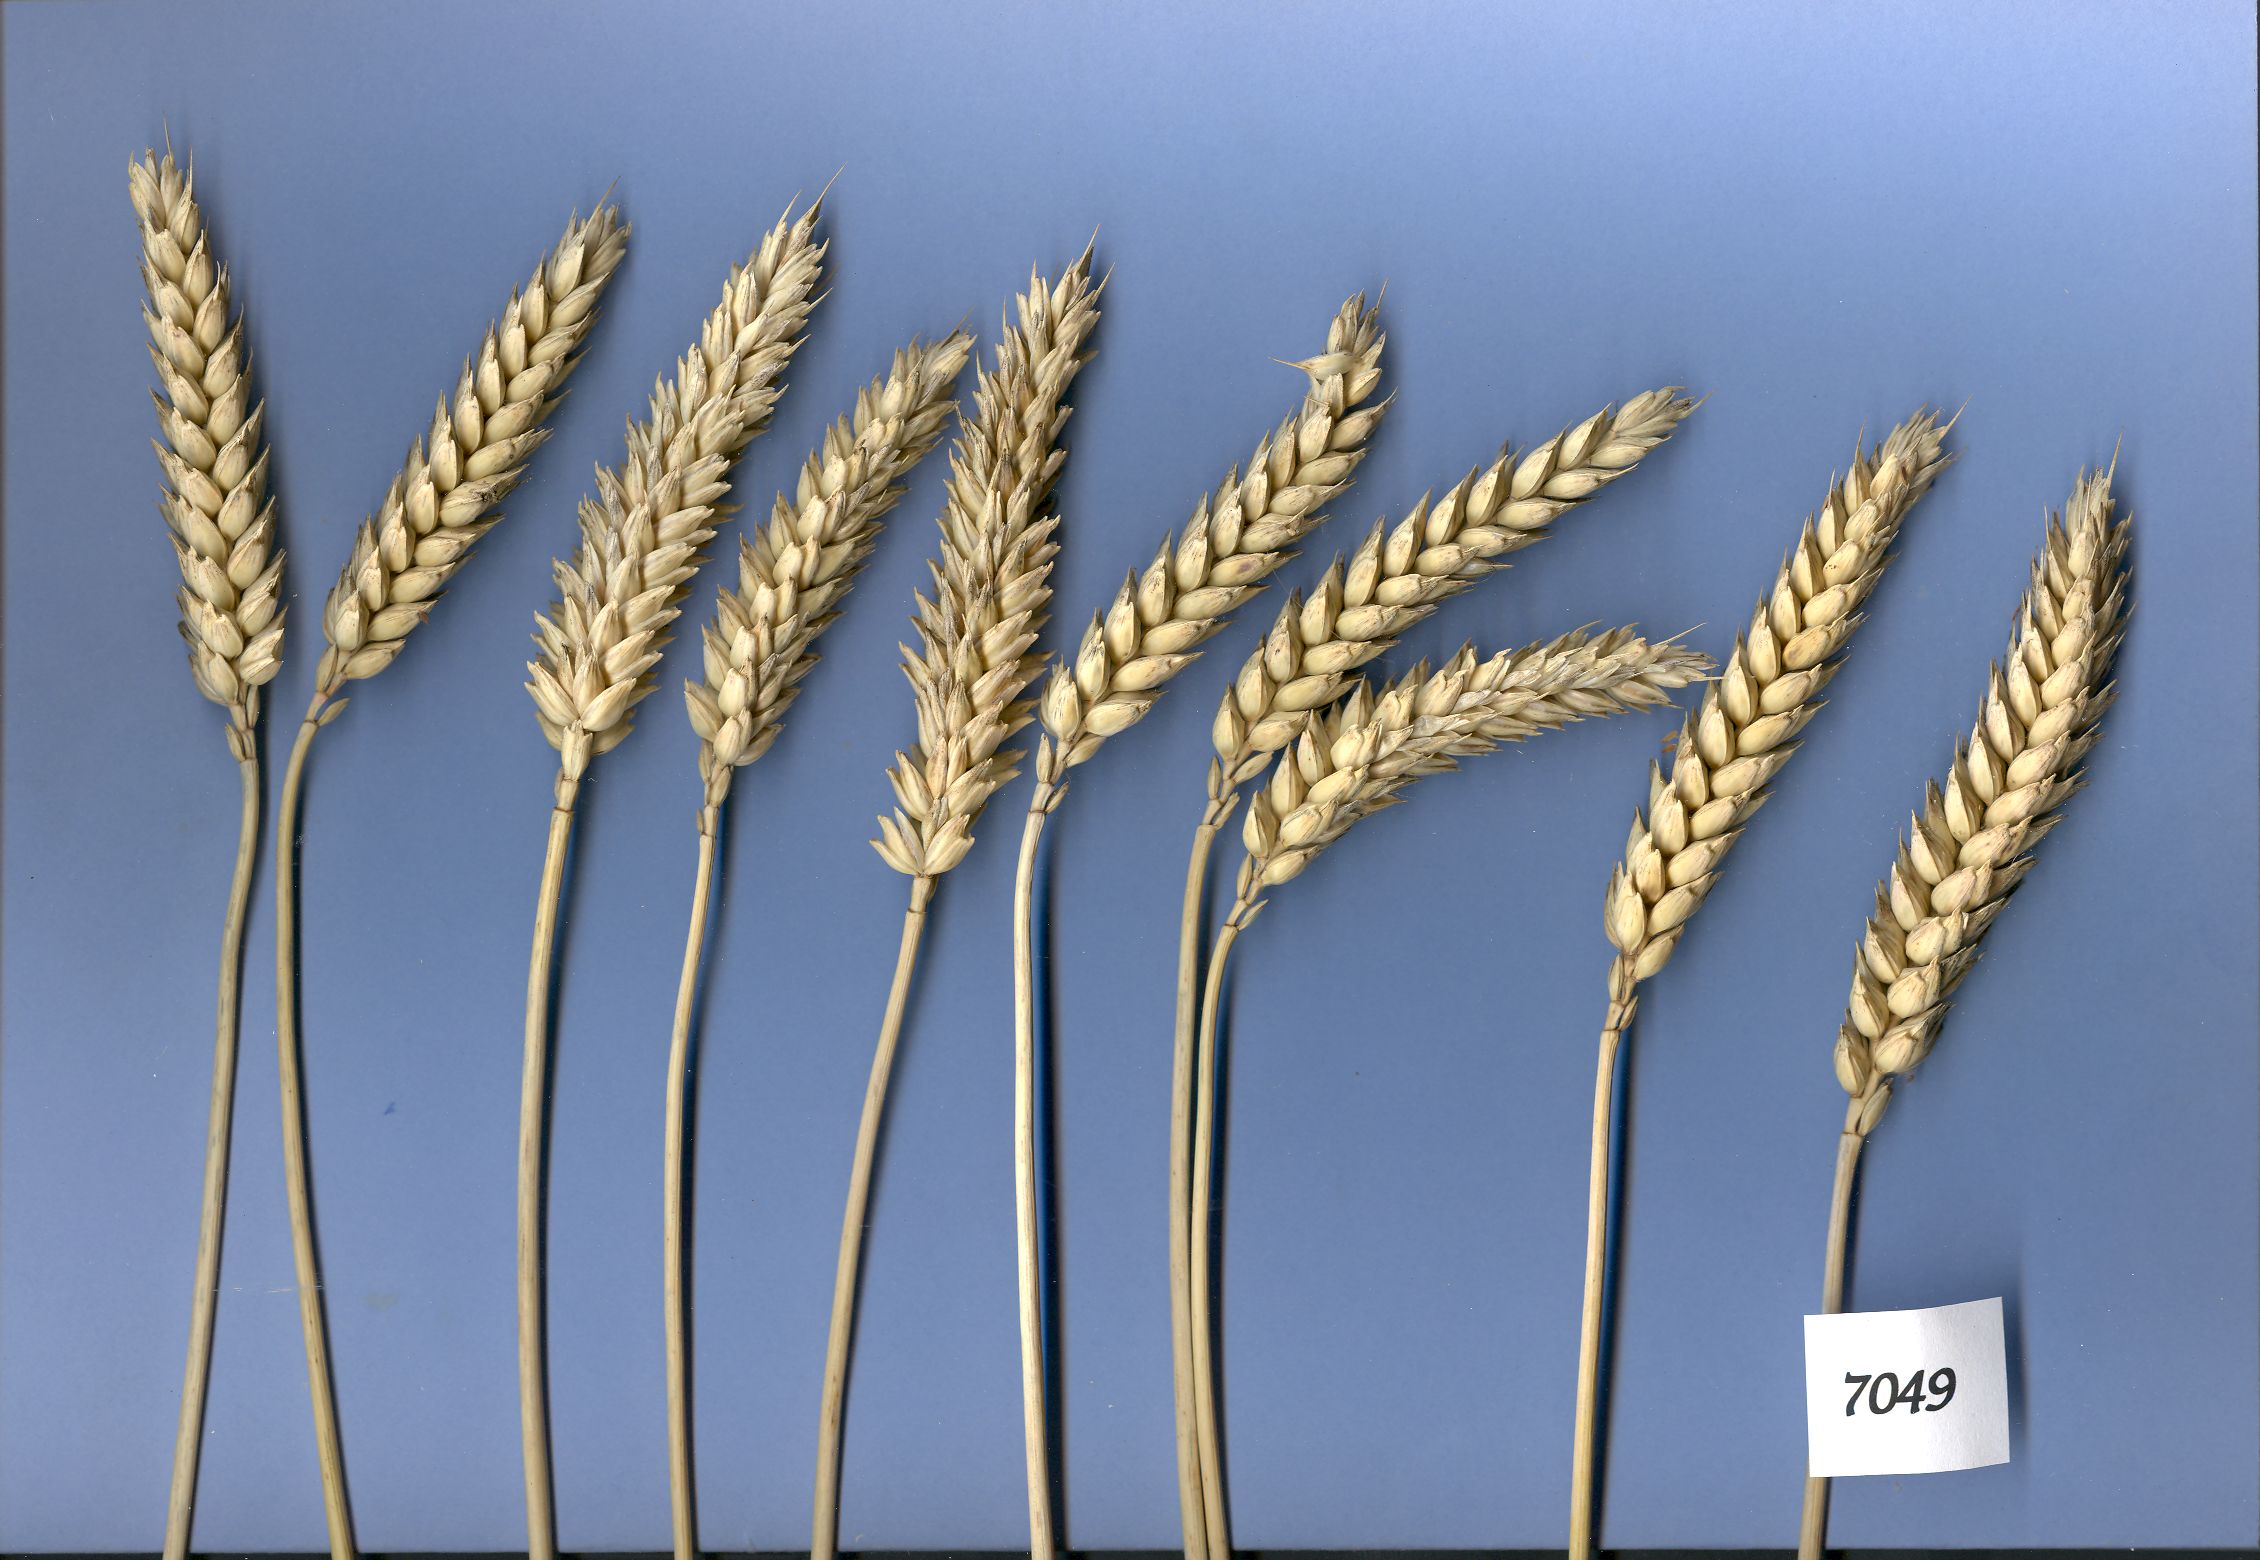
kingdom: Plantae
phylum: Tracheophyta
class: Liliopsida
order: Poales
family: Poaceae
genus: Triticum
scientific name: Triticum aestivum
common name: Common wheat
